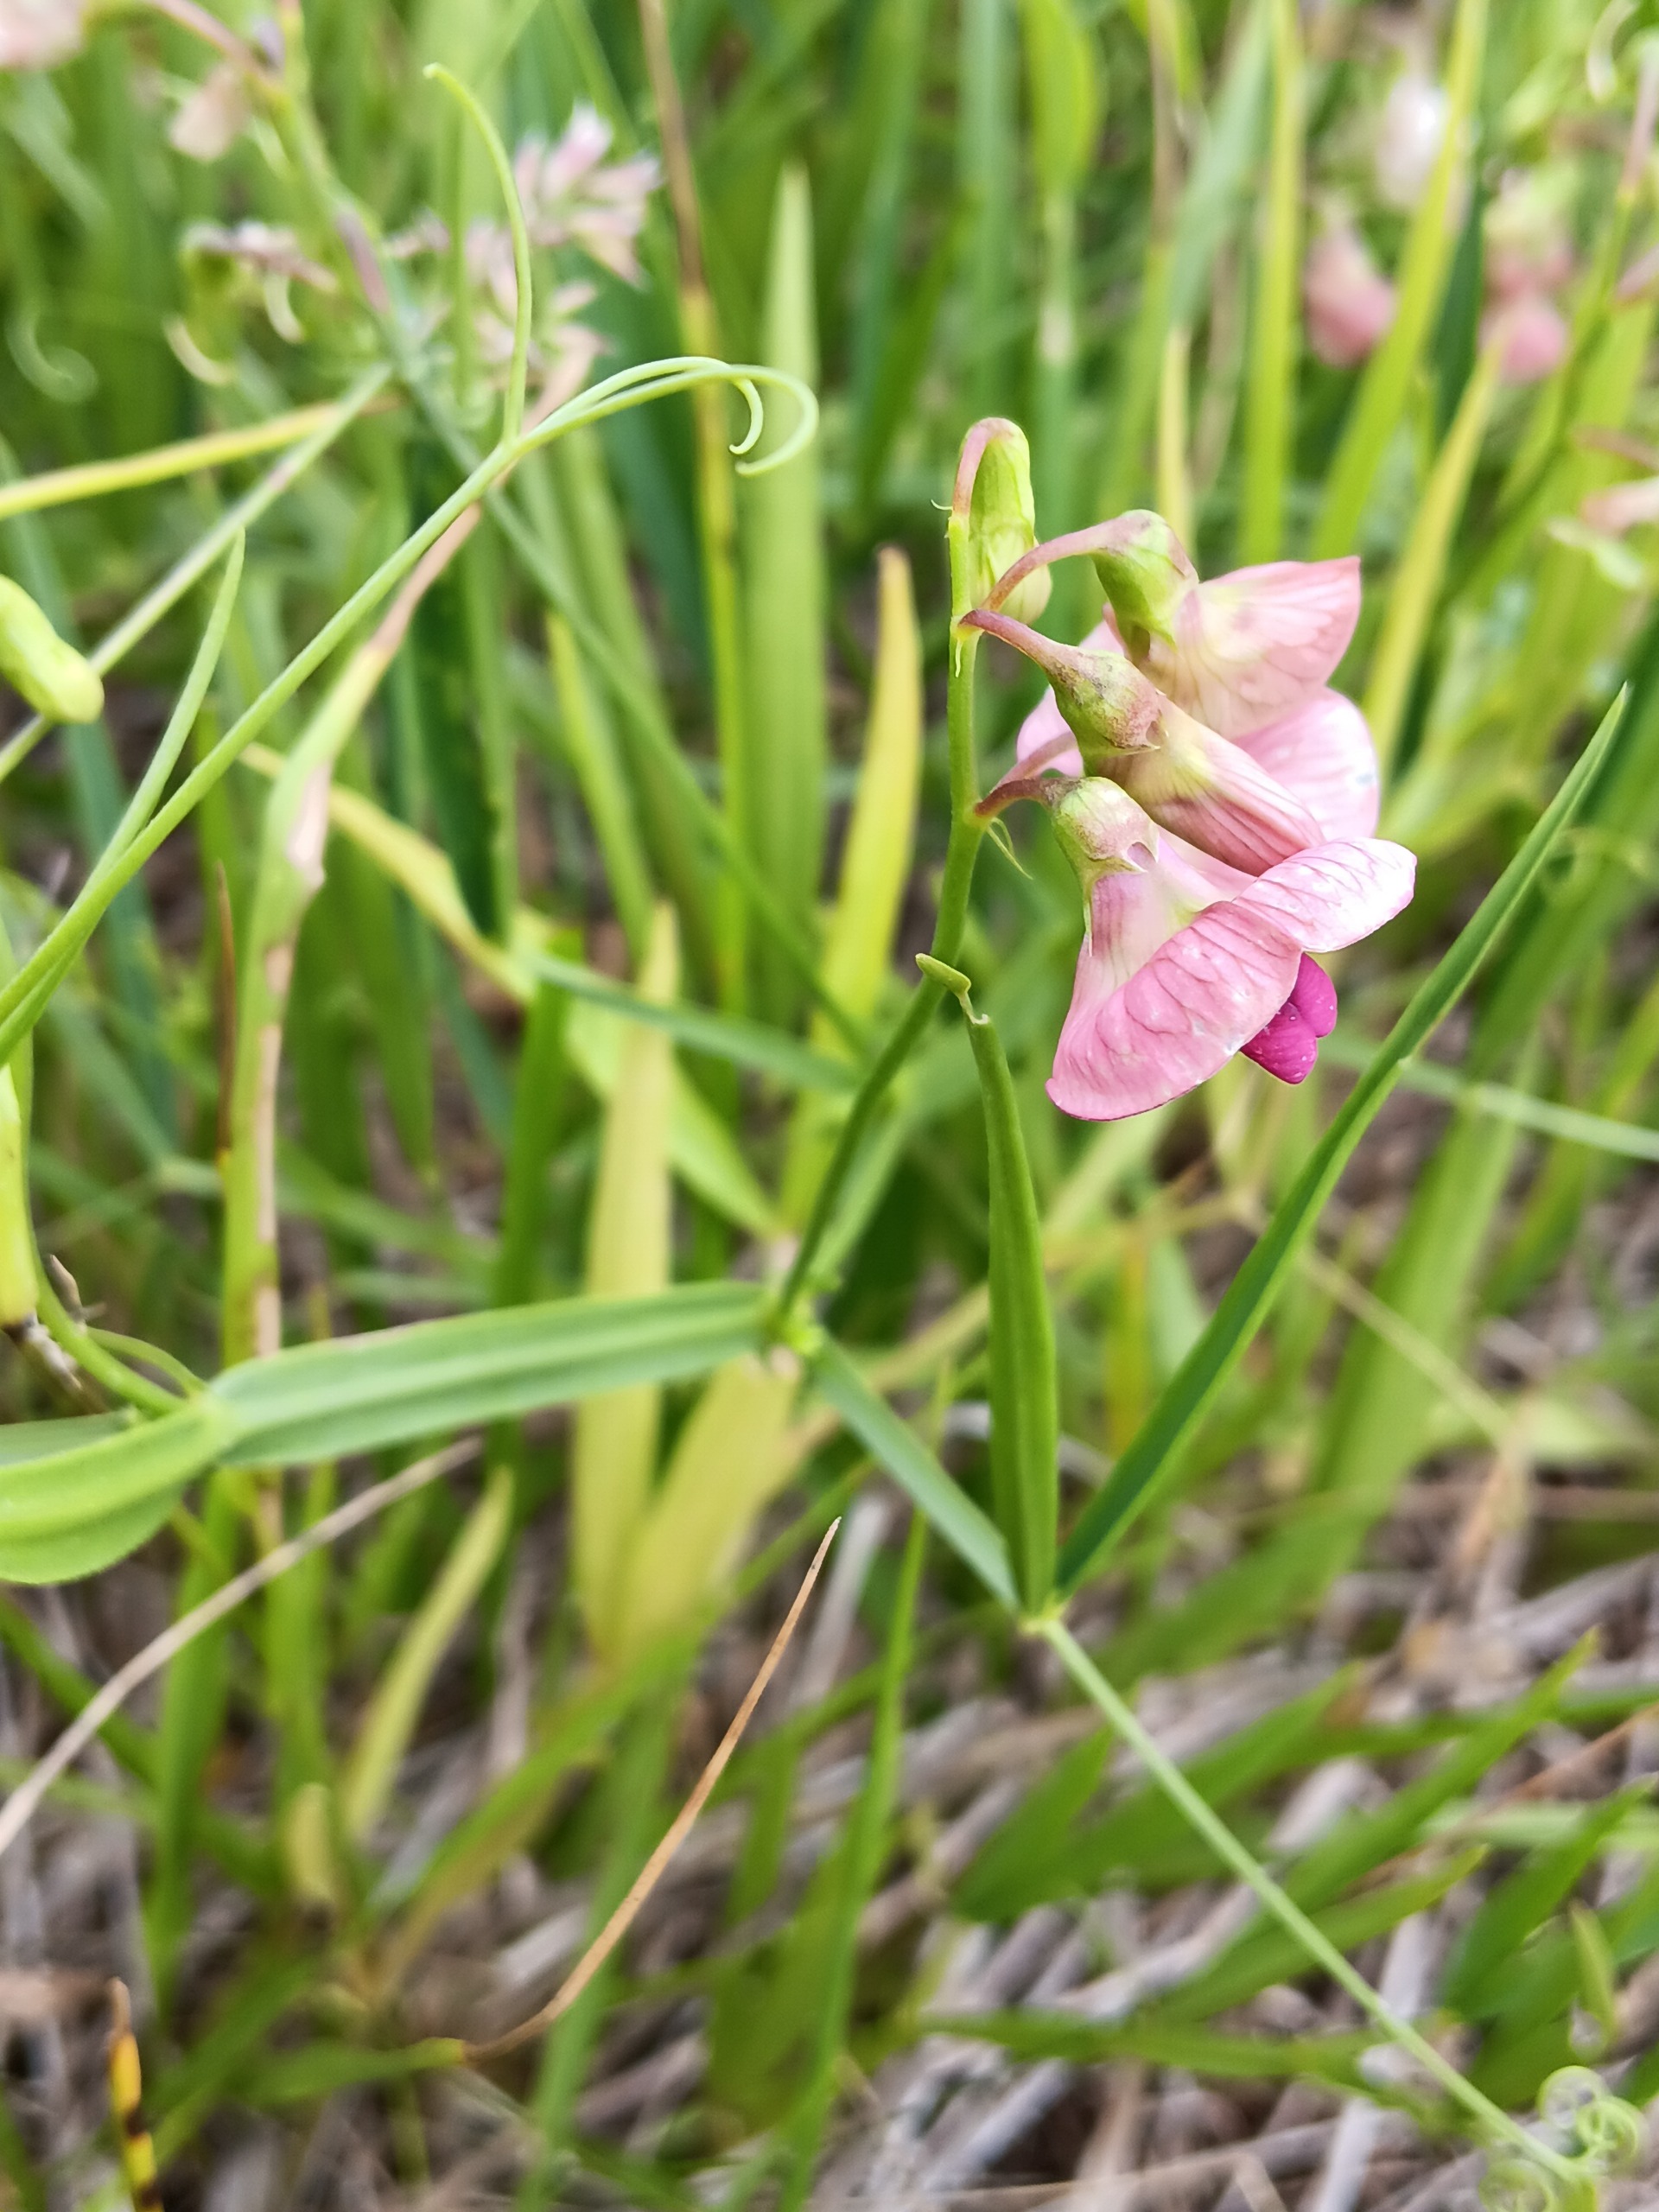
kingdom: Plantae
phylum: Tracheophyta
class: Magnoliopsida
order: Fabales
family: Fabaceae
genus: Lathyrus
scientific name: Lathyrus sylvestris
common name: Skov-fladbælg
